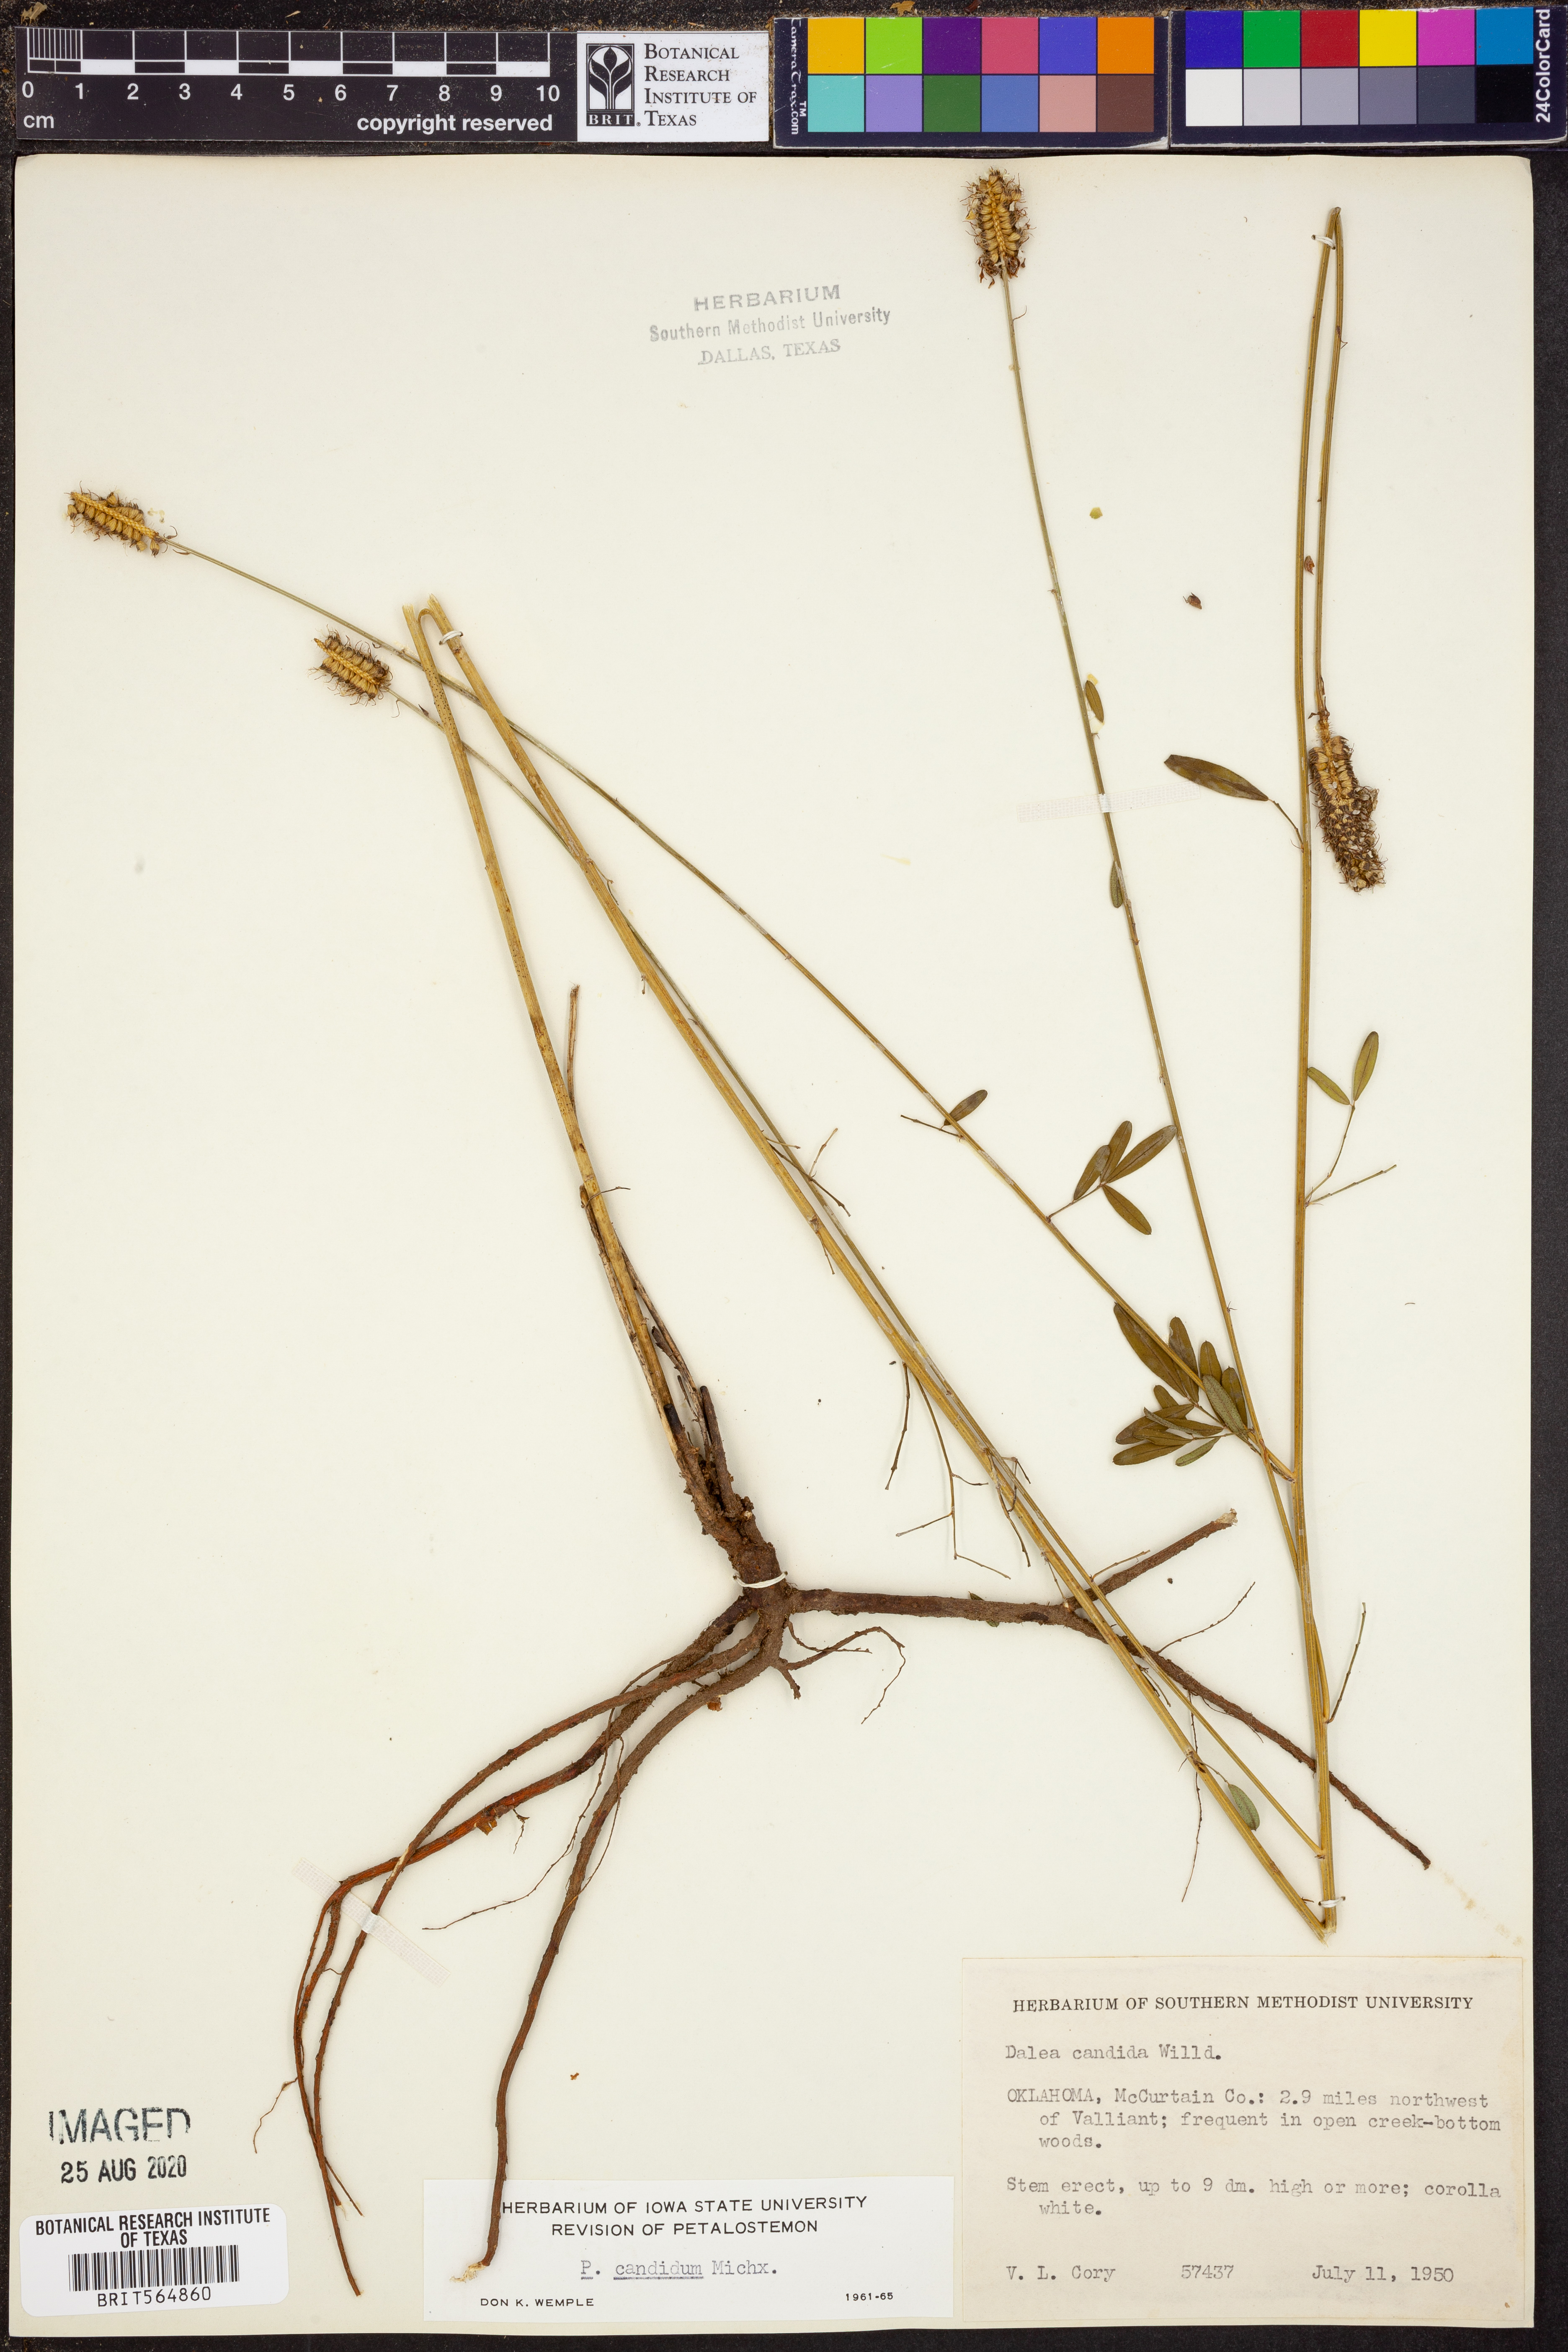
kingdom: Plantae
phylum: Tracheophyta
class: Magnoliopsida
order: Fabales
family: Fabaceae
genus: Dalea
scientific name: Dalea candida
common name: White prairie-clover
